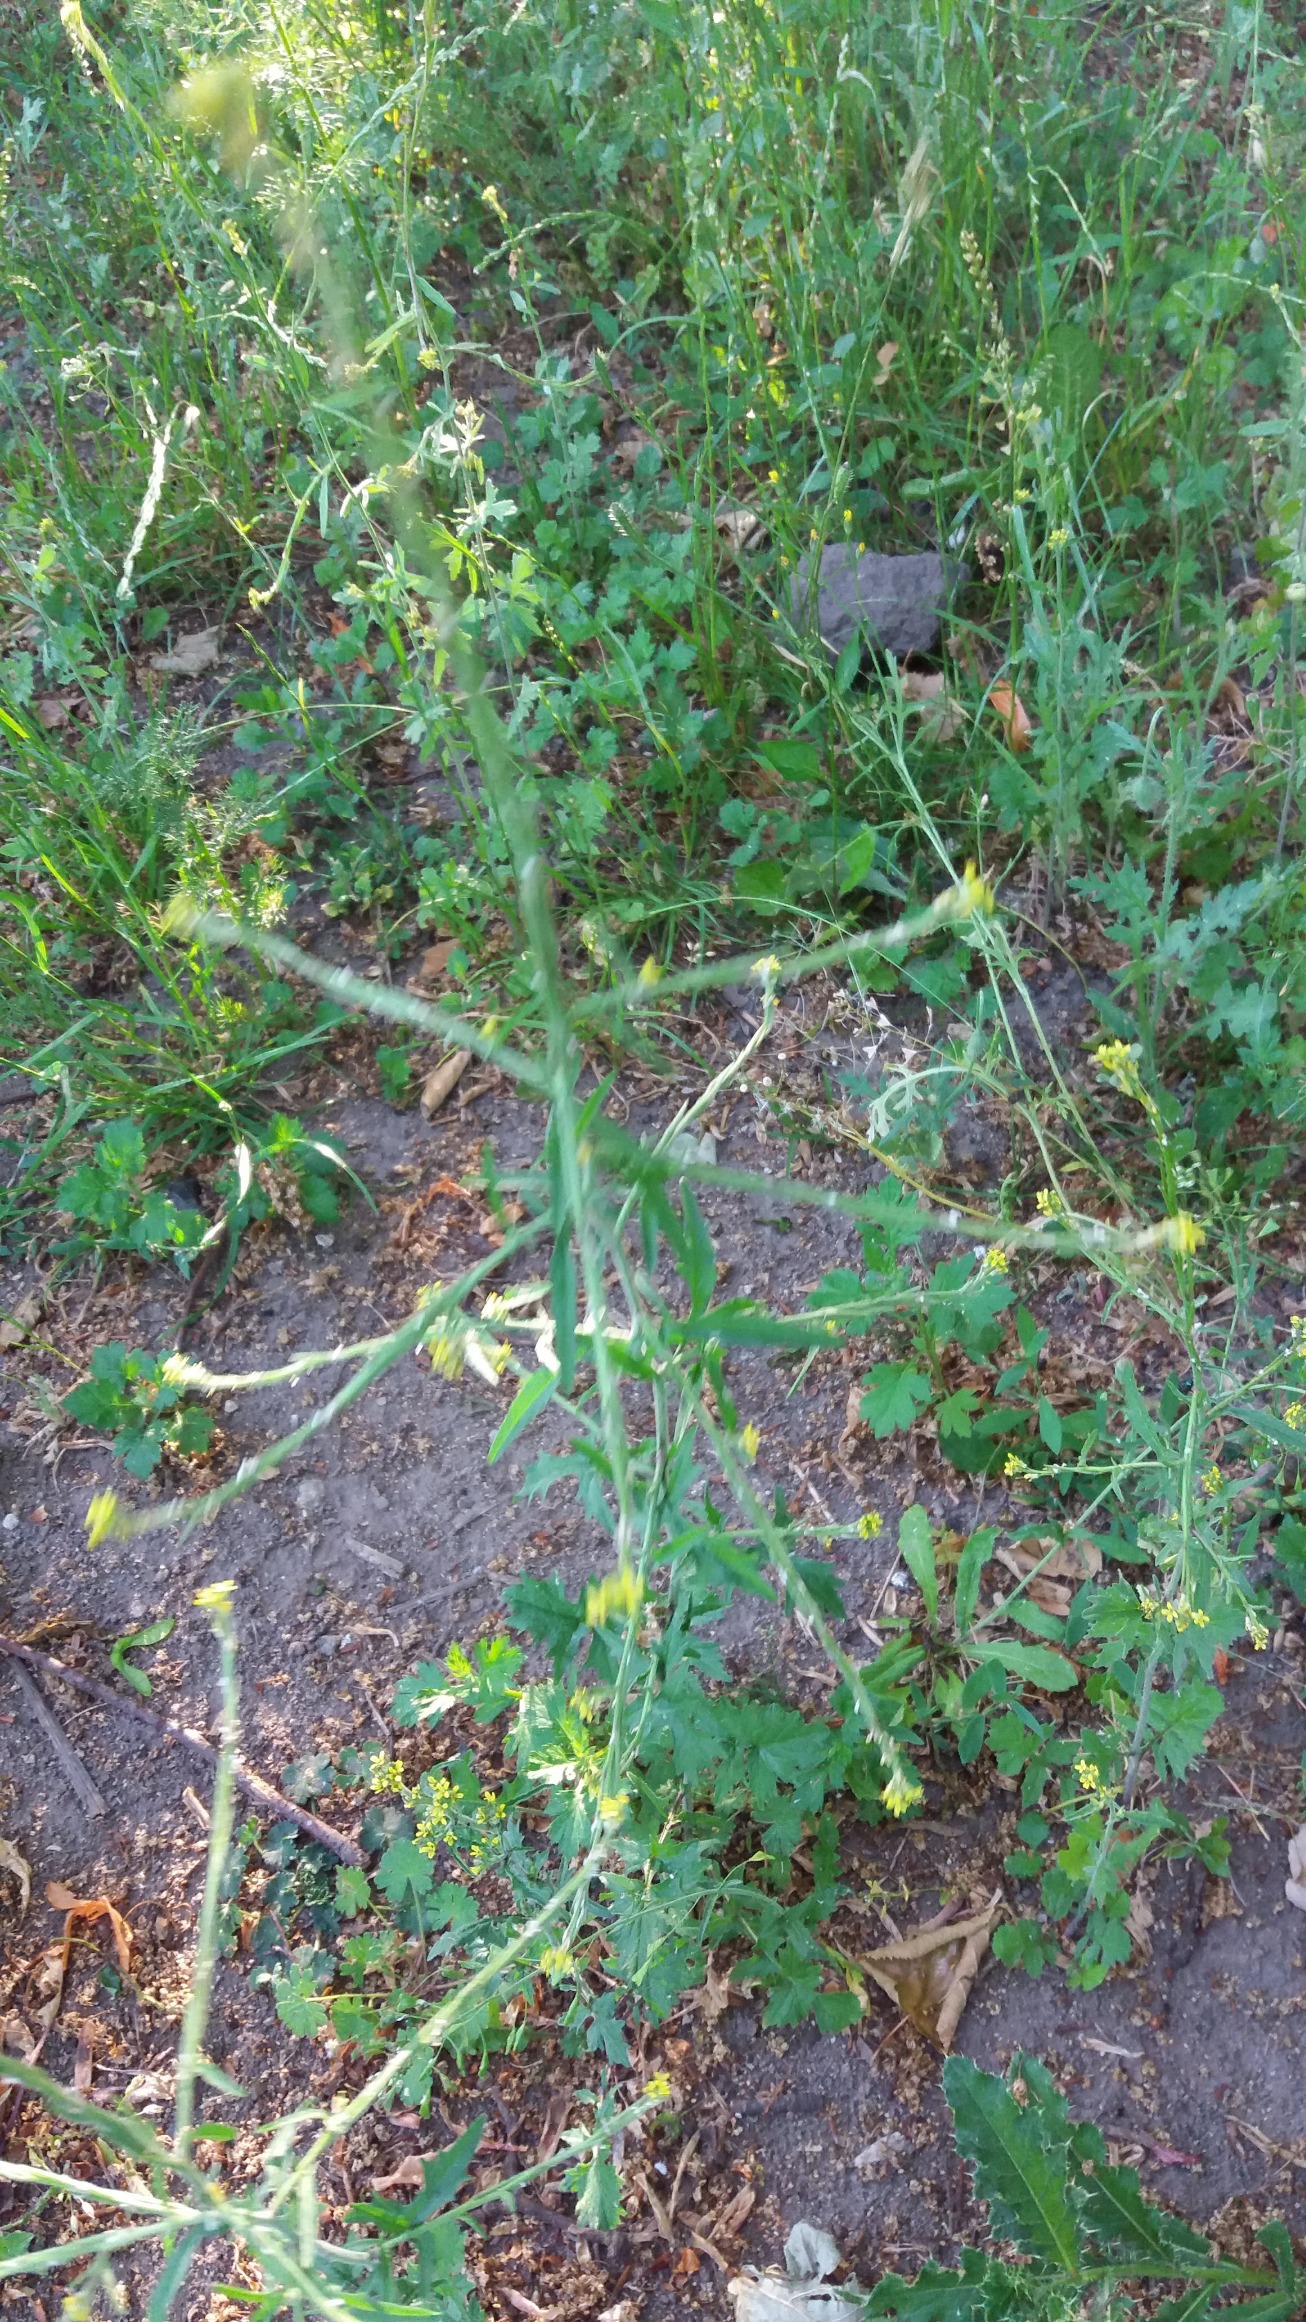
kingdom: Plantae
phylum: Tracheophyta
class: Magnoliopsida
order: Brassicales
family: Brassicaceae
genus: Sisymbrium
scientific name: Sisymbrium officinale
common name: Rank vejsennep
